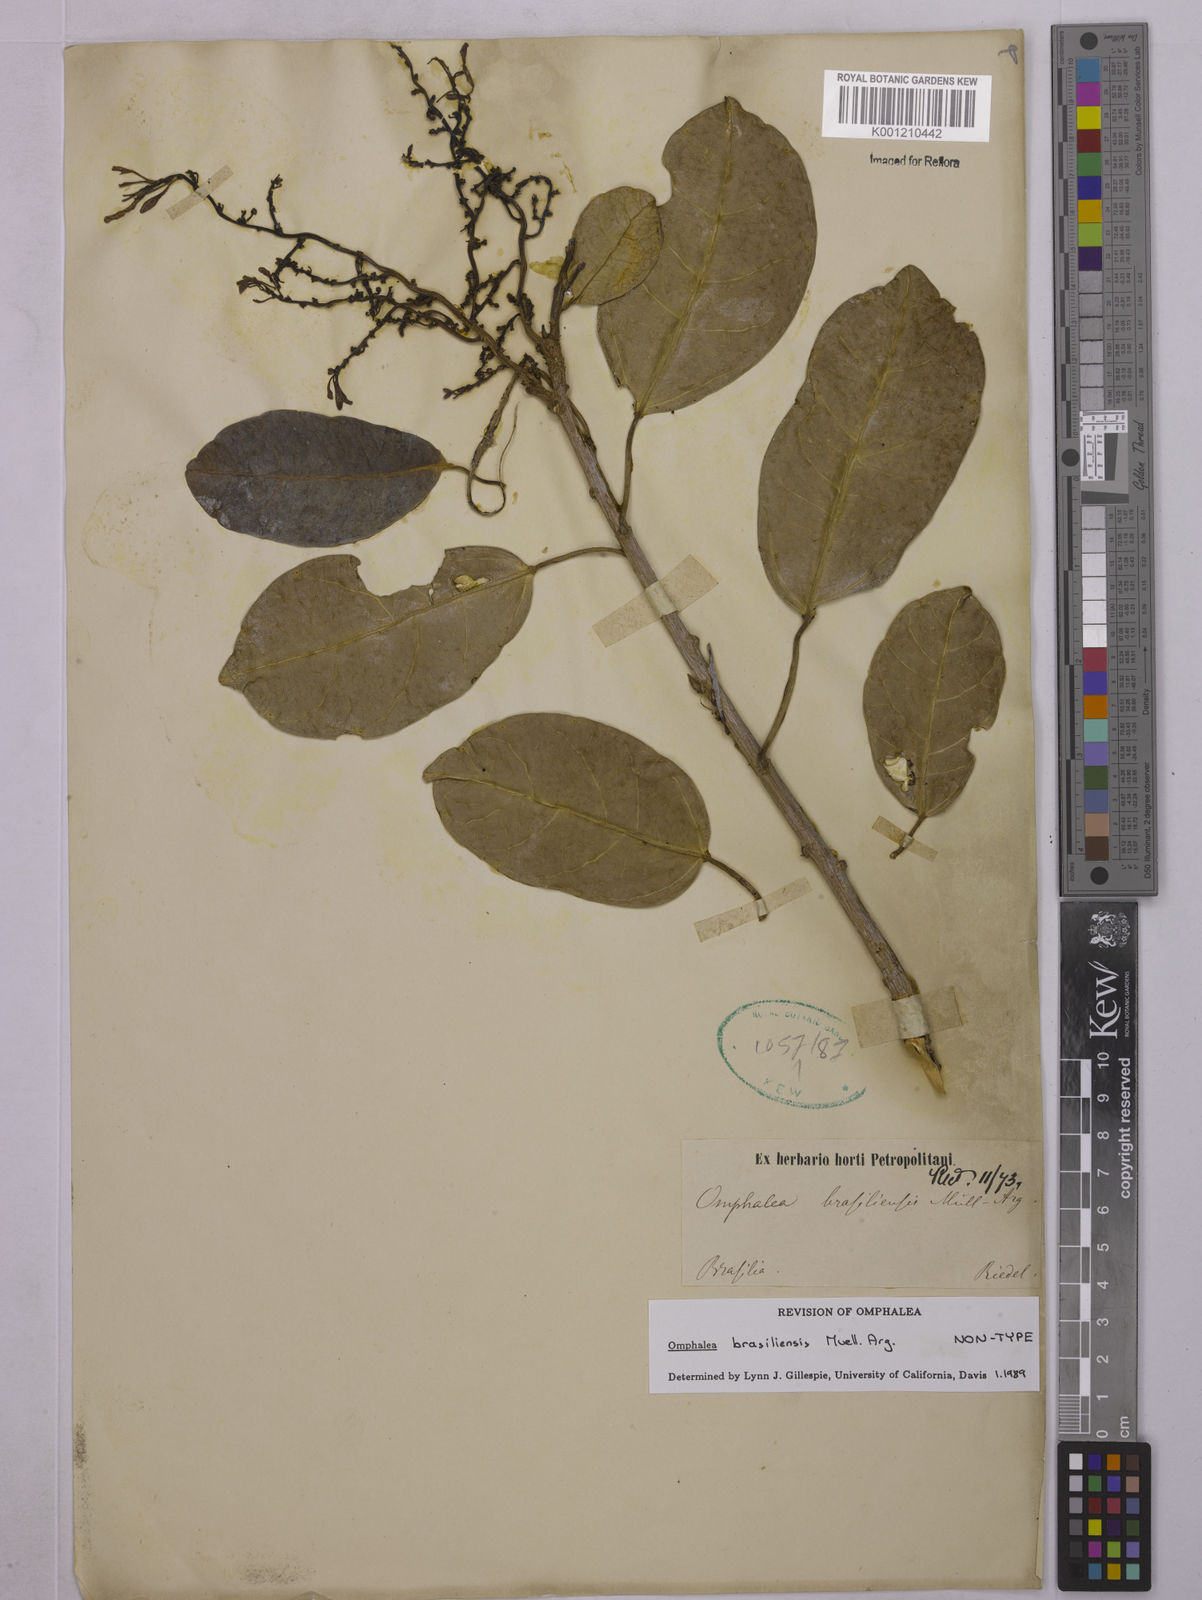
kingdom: Plantae
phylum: Tracheophyta
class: Magnoliopsida
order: Malpighiales
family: Euphorbiaceae
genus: Omphalea
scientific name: Omphalea
